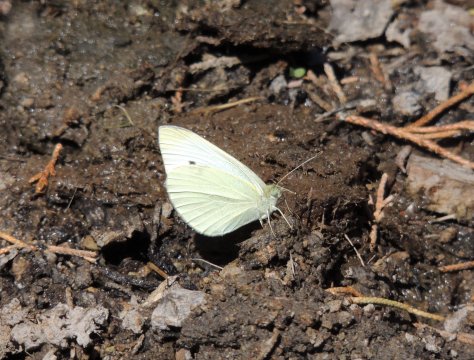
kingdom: Animalia
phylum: Arthropoda
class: Insecta
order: Lepidoptera
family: Pieridae
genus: Pieris
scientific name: Pieris rapae
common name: Cabbage White
